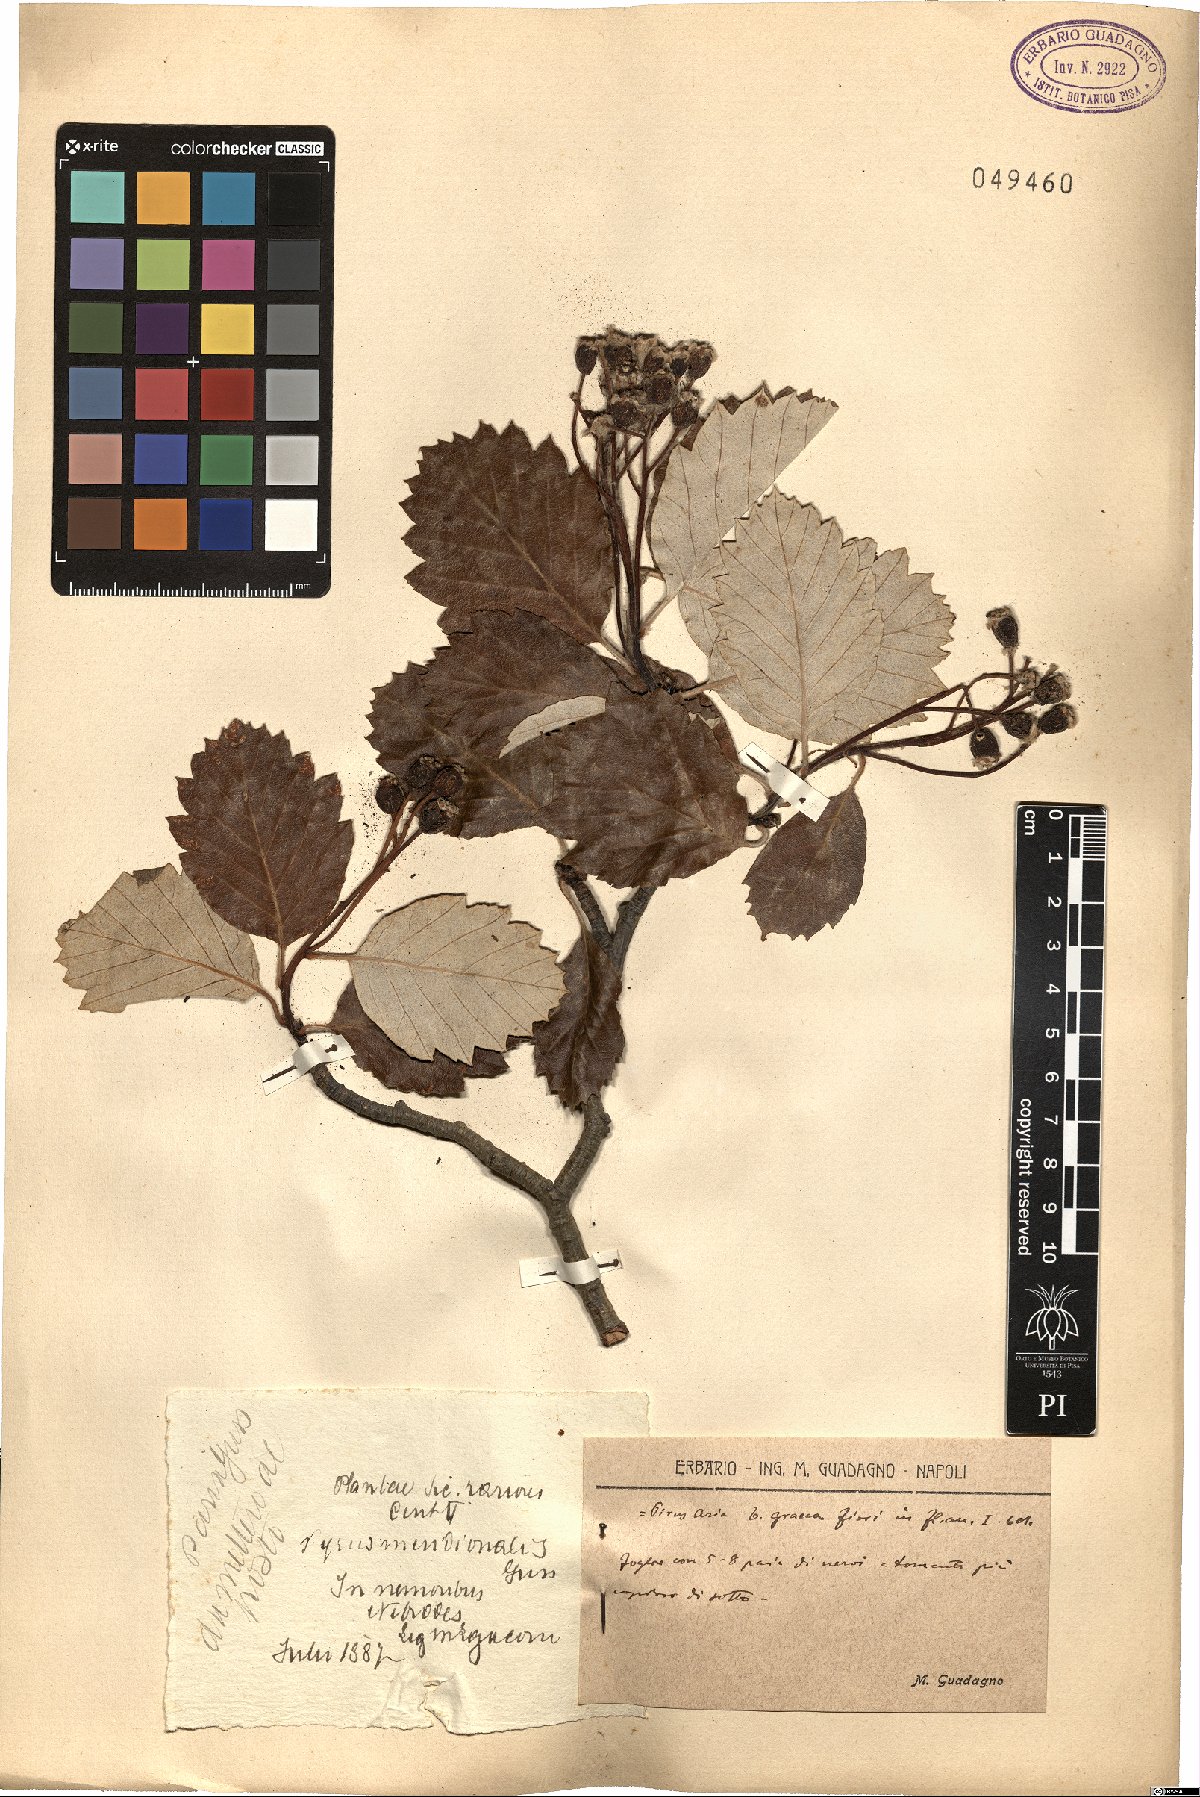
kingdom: Plantae
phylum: Tracheophyta
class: Magnoliopsida
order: Rosales
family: Rosaceae
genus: Aria
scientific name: Aria graeca
